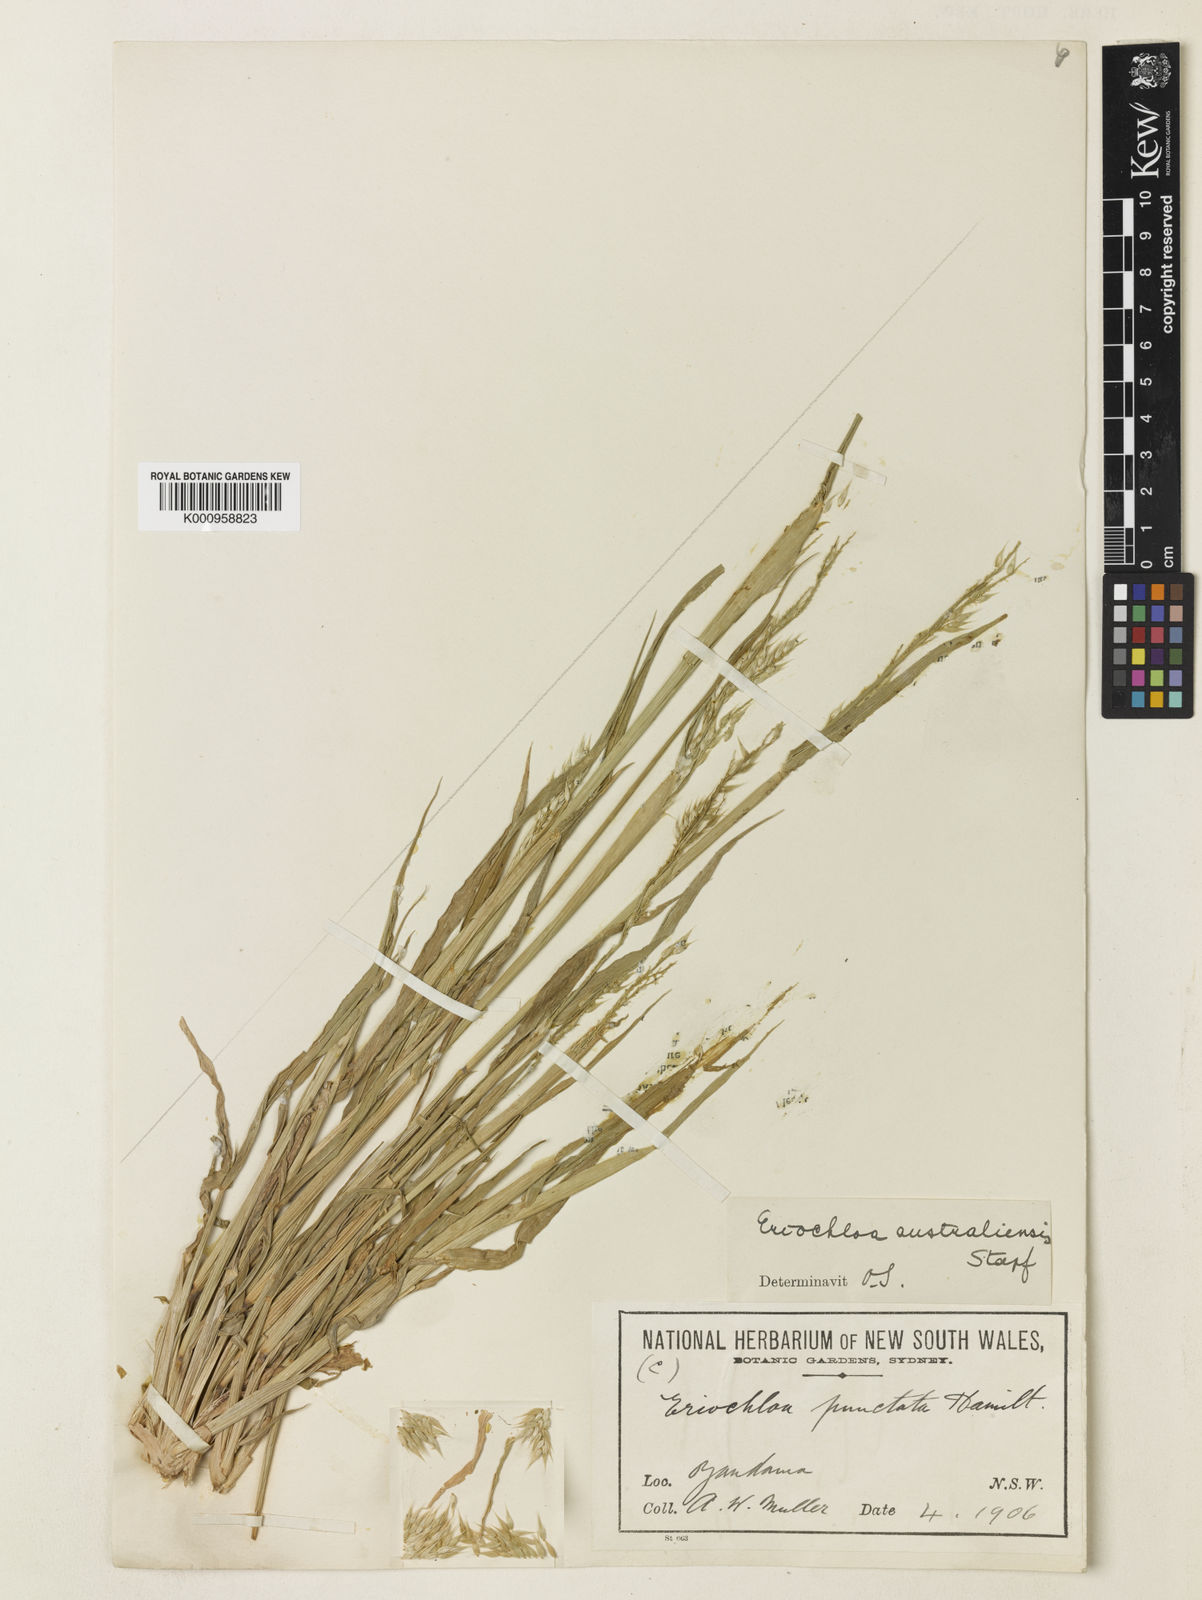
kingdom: Plantae
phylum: Tracheophyta
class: Liliopsida
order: Poales
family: Poaceae
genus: Eriochloa
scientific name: Eriochloa australiensis
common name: Australian cup grass
